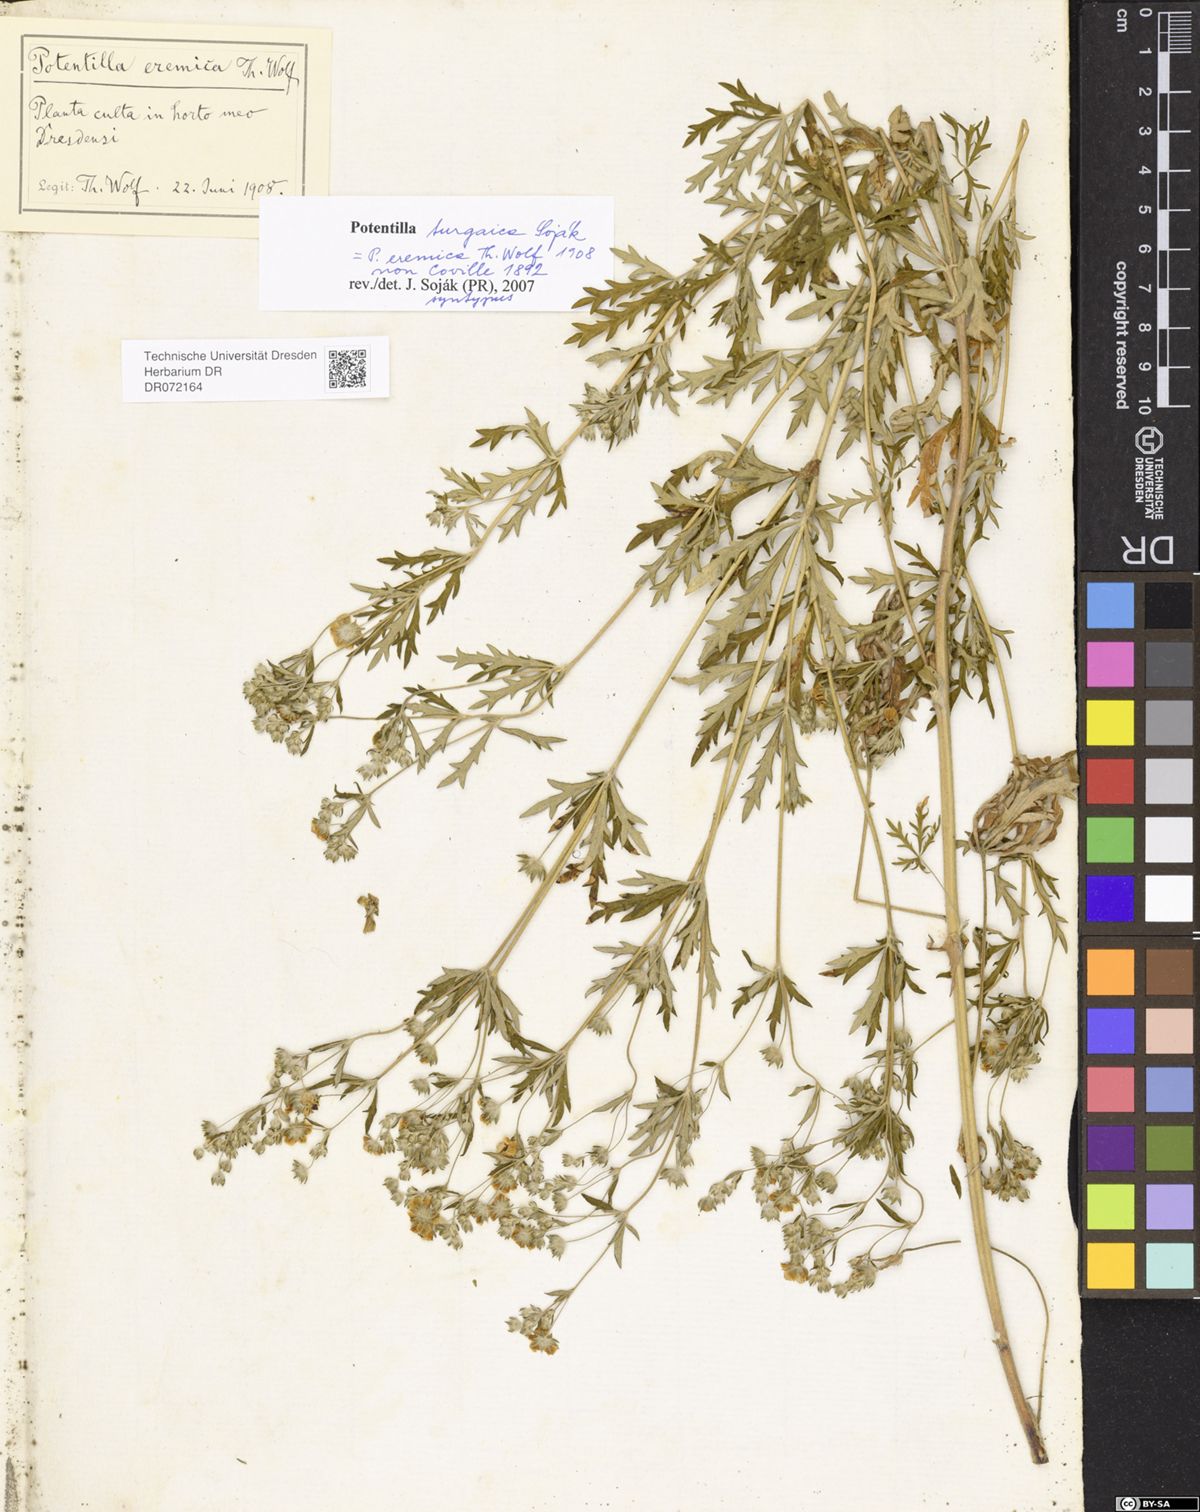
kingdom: Plantae
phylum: Tracheophyta
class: Magnoliopsida
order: Rosales
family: Rosaceae
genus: Potentilla
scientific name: Potentilla turgaica
